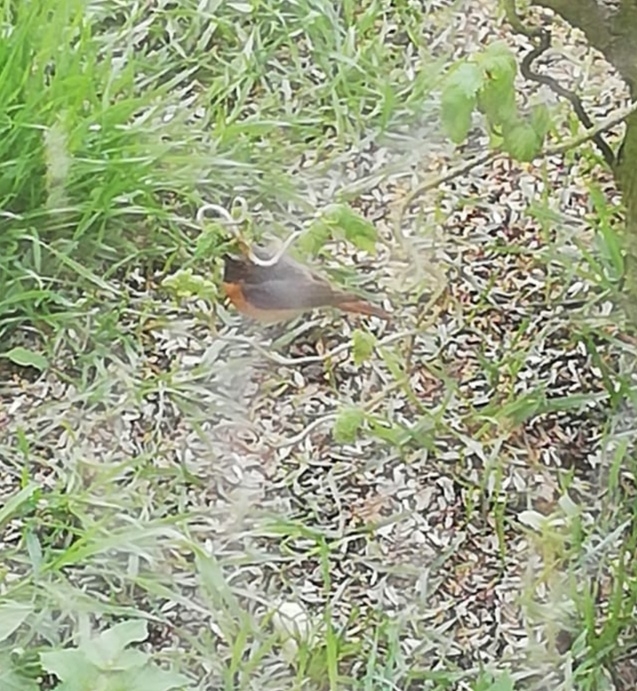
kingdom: Animalia
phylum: Chordata
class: Aves
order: Passeriformes
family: Muscicapidae
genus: Phoenicurus
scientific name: Phoenicurus phoenicurus
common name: Rødstjert
